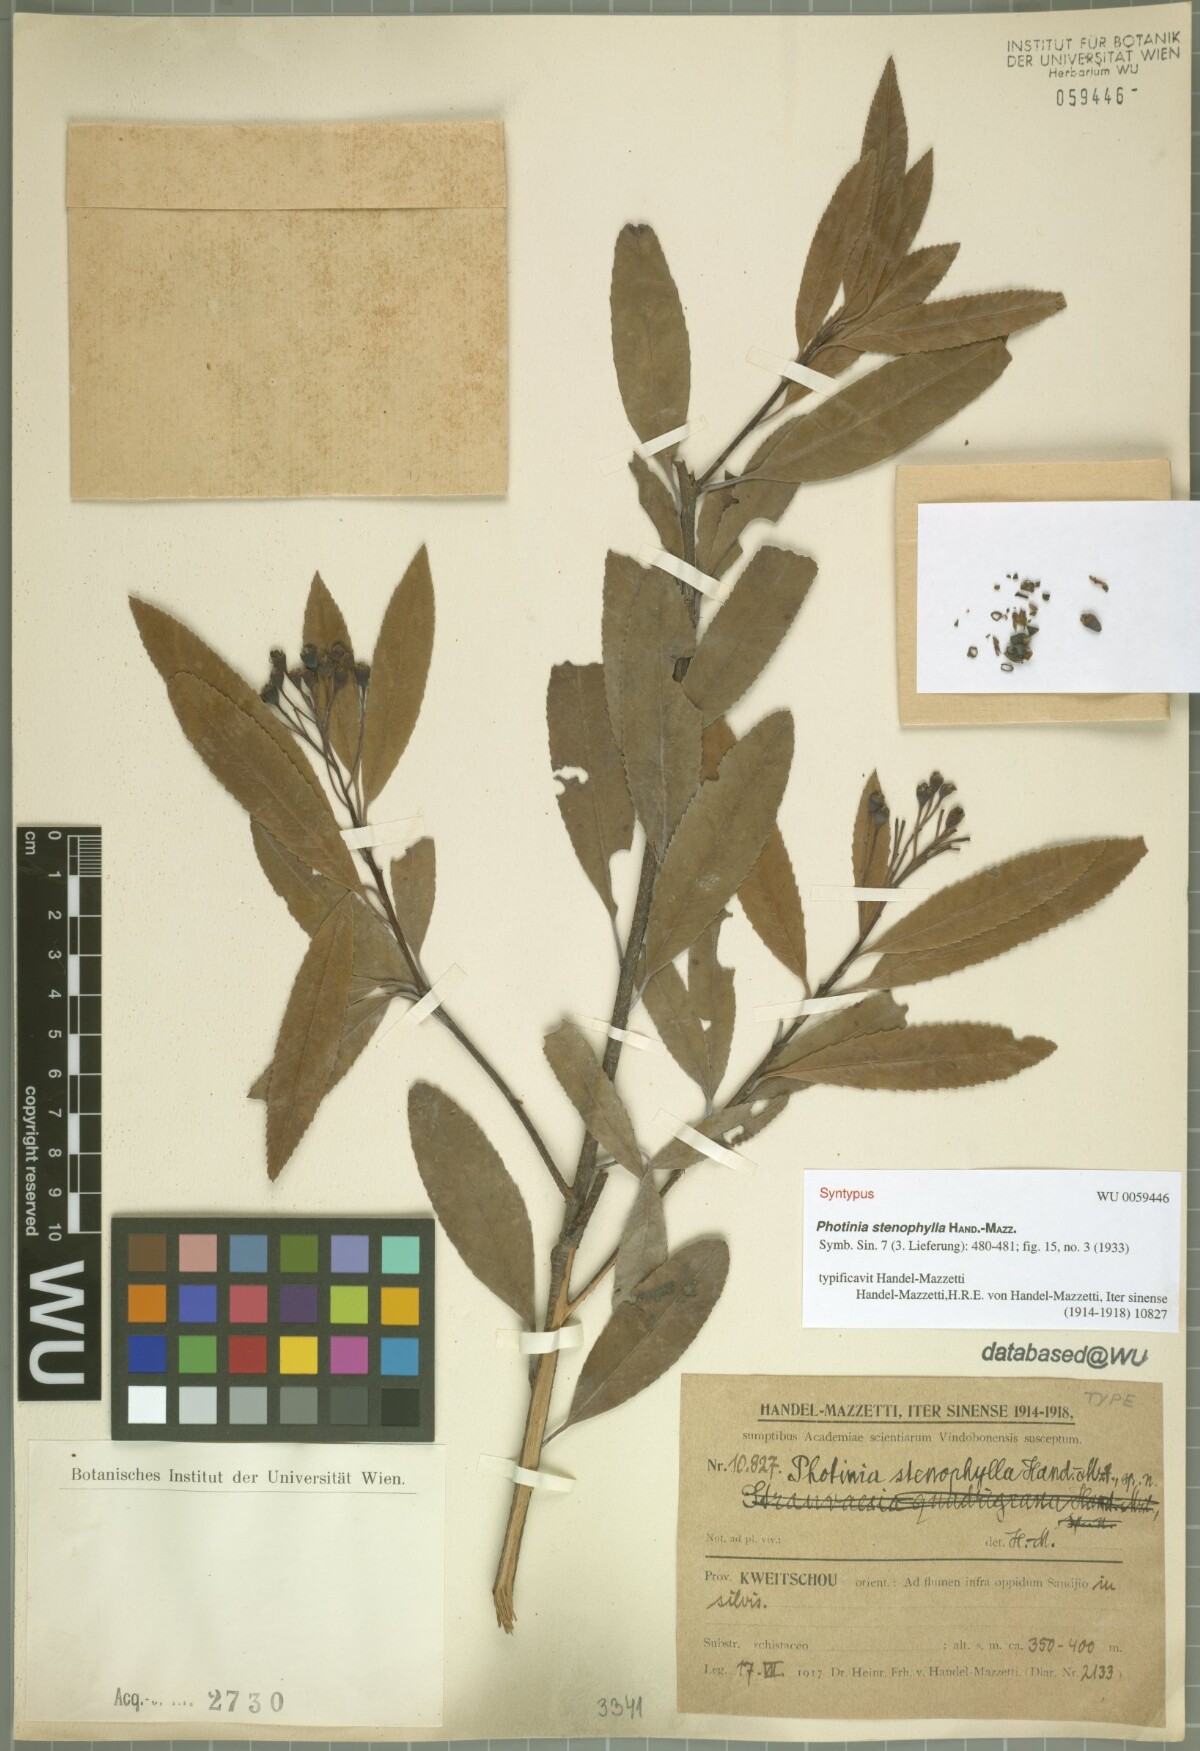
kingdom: Plantae
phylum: Tracheophyta
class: Magnoliopsida
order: Rosales
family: Rosaceae
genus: Photinia
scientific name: Photinia stenophylla
